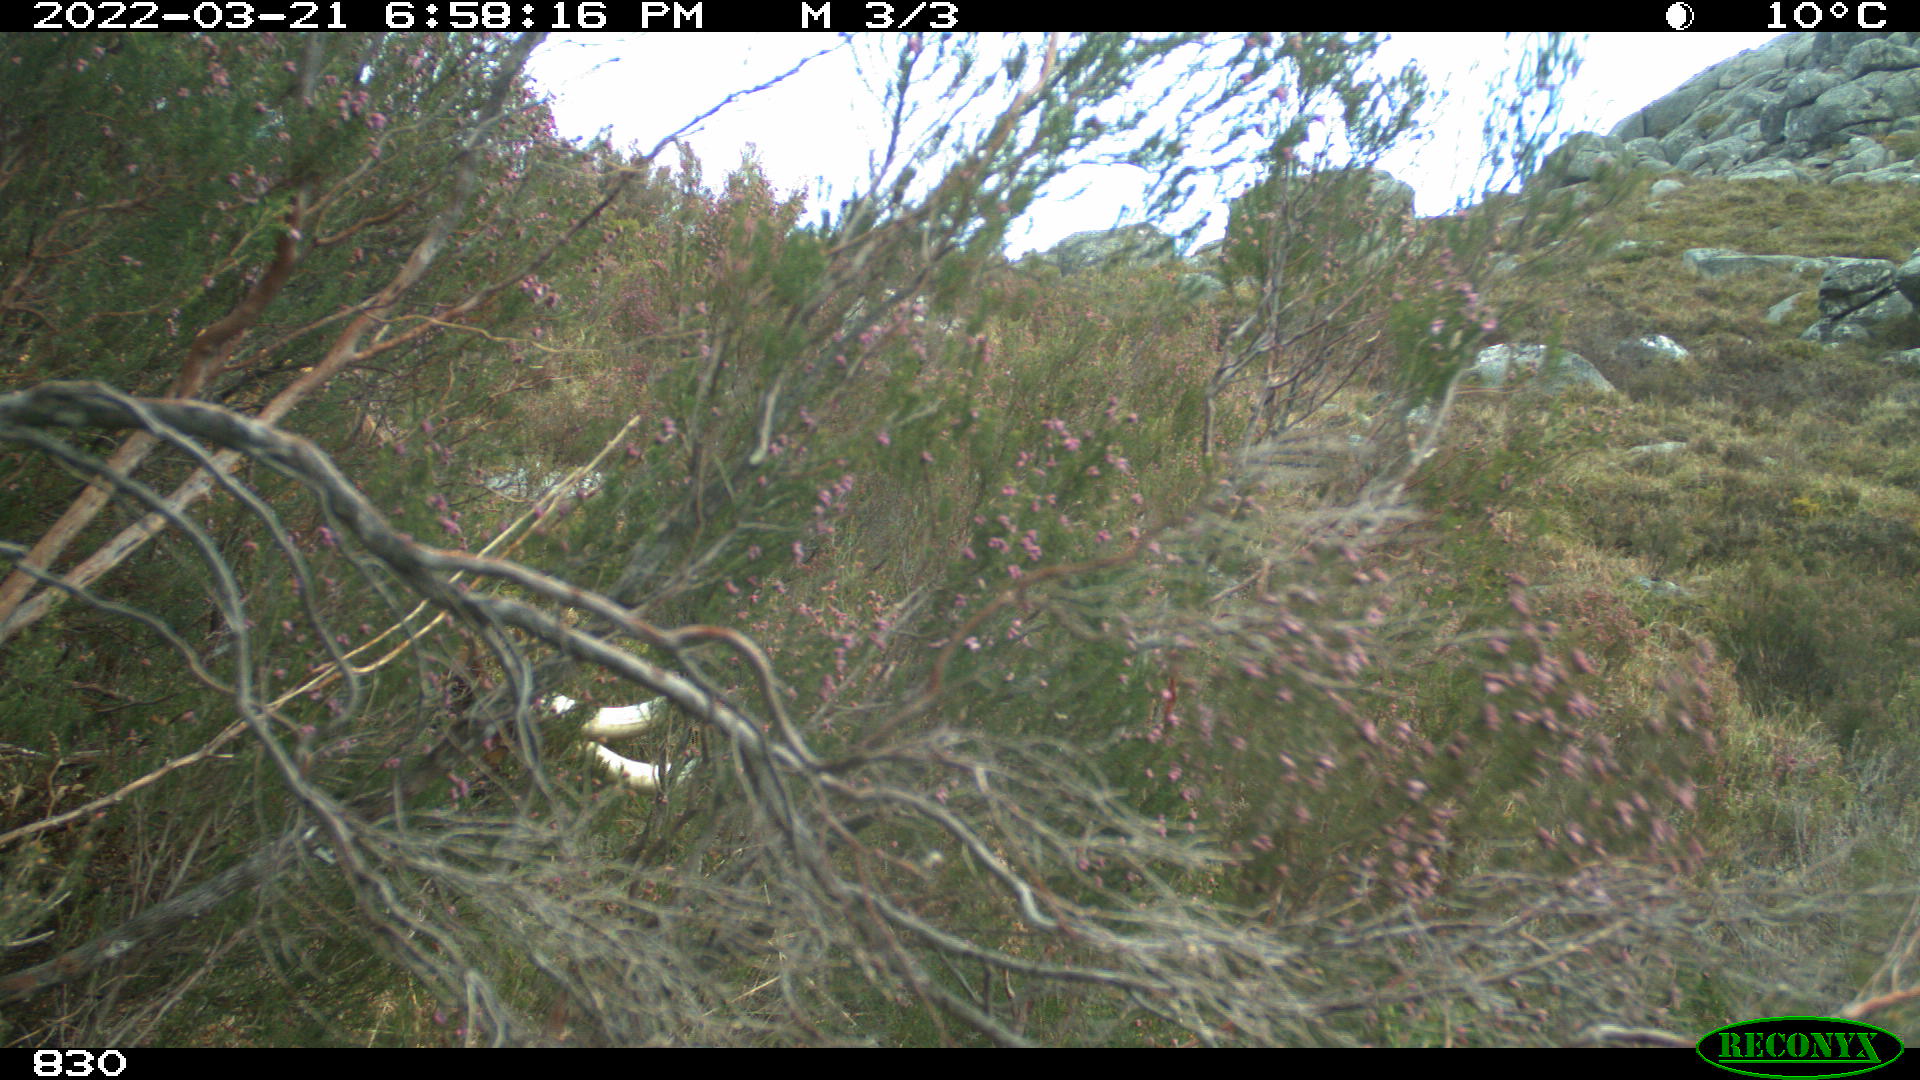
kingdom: Animalia
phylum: Chordata
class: Mammalia
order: Artiodactyla
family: Bovidae
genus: Bos
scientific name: Bos taurus
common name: Domesticated cattle
